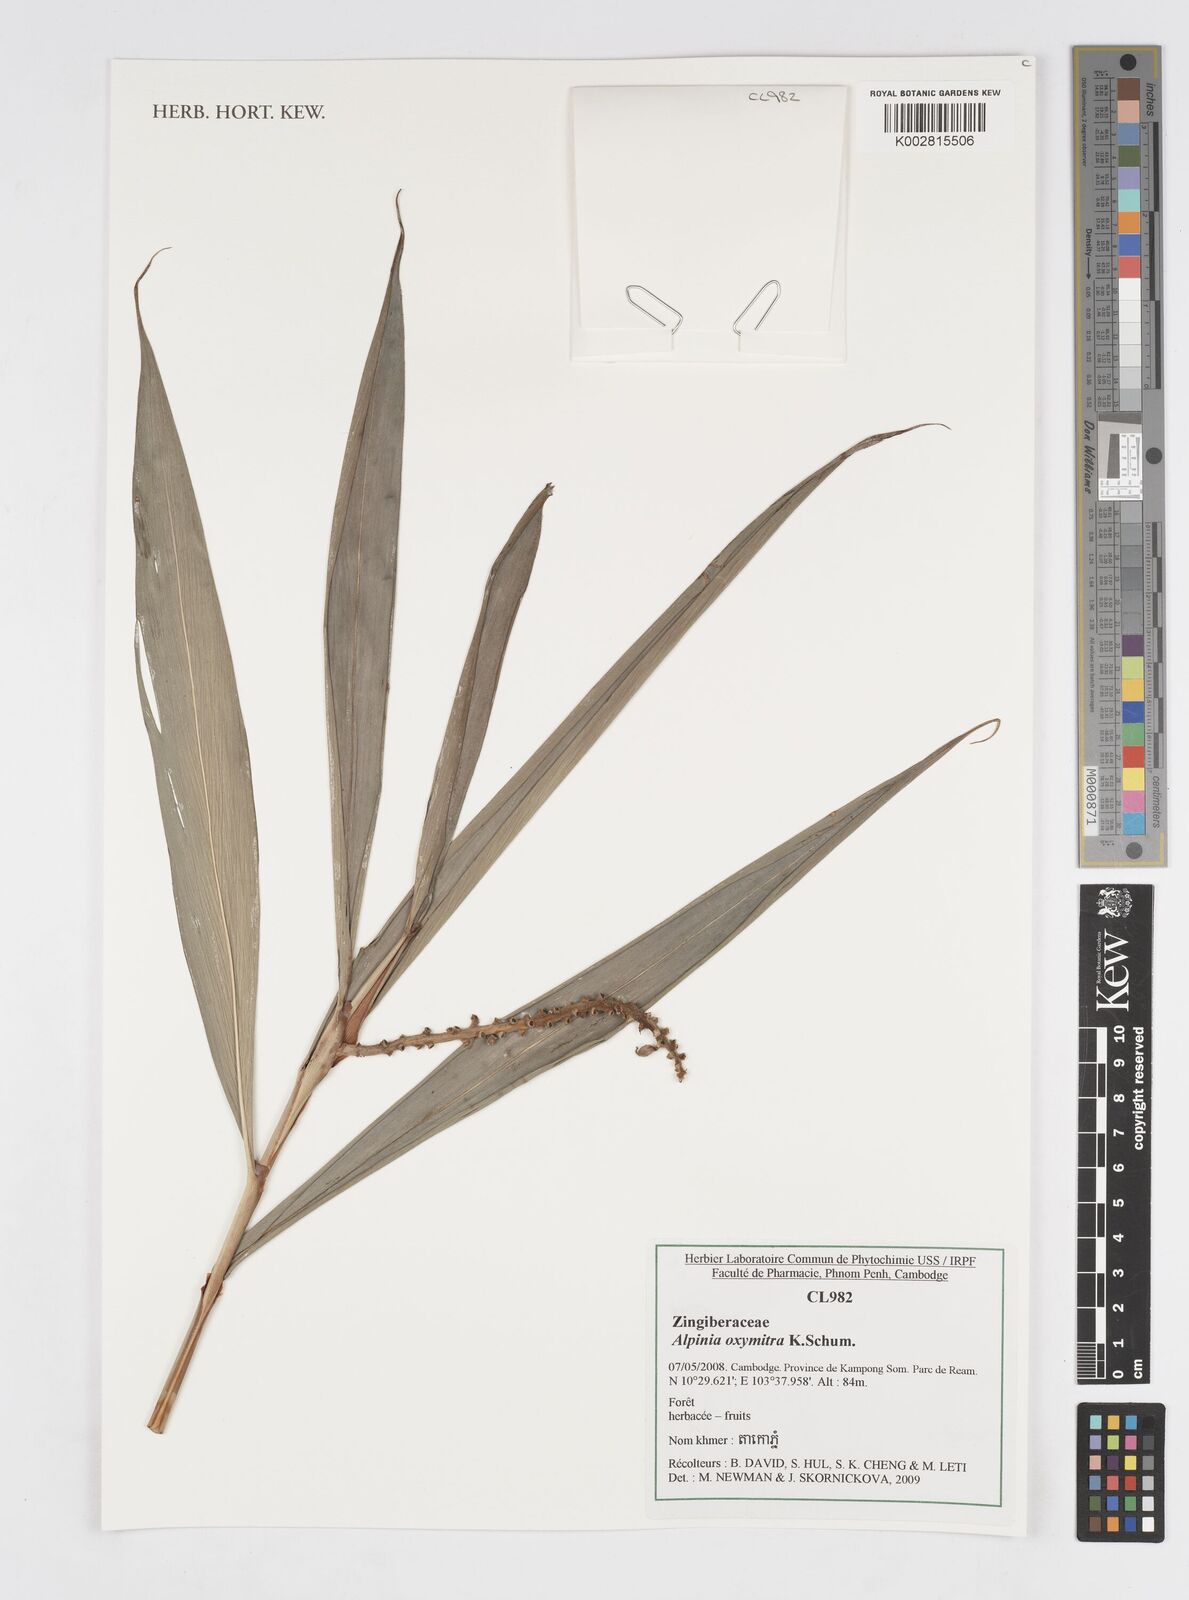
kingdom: Plantae
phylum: Tracheophyta
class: Liliopsida
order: Zingiberales
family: Zingiberaceae
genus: Alpinia
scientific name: Alpinia oxymitra
